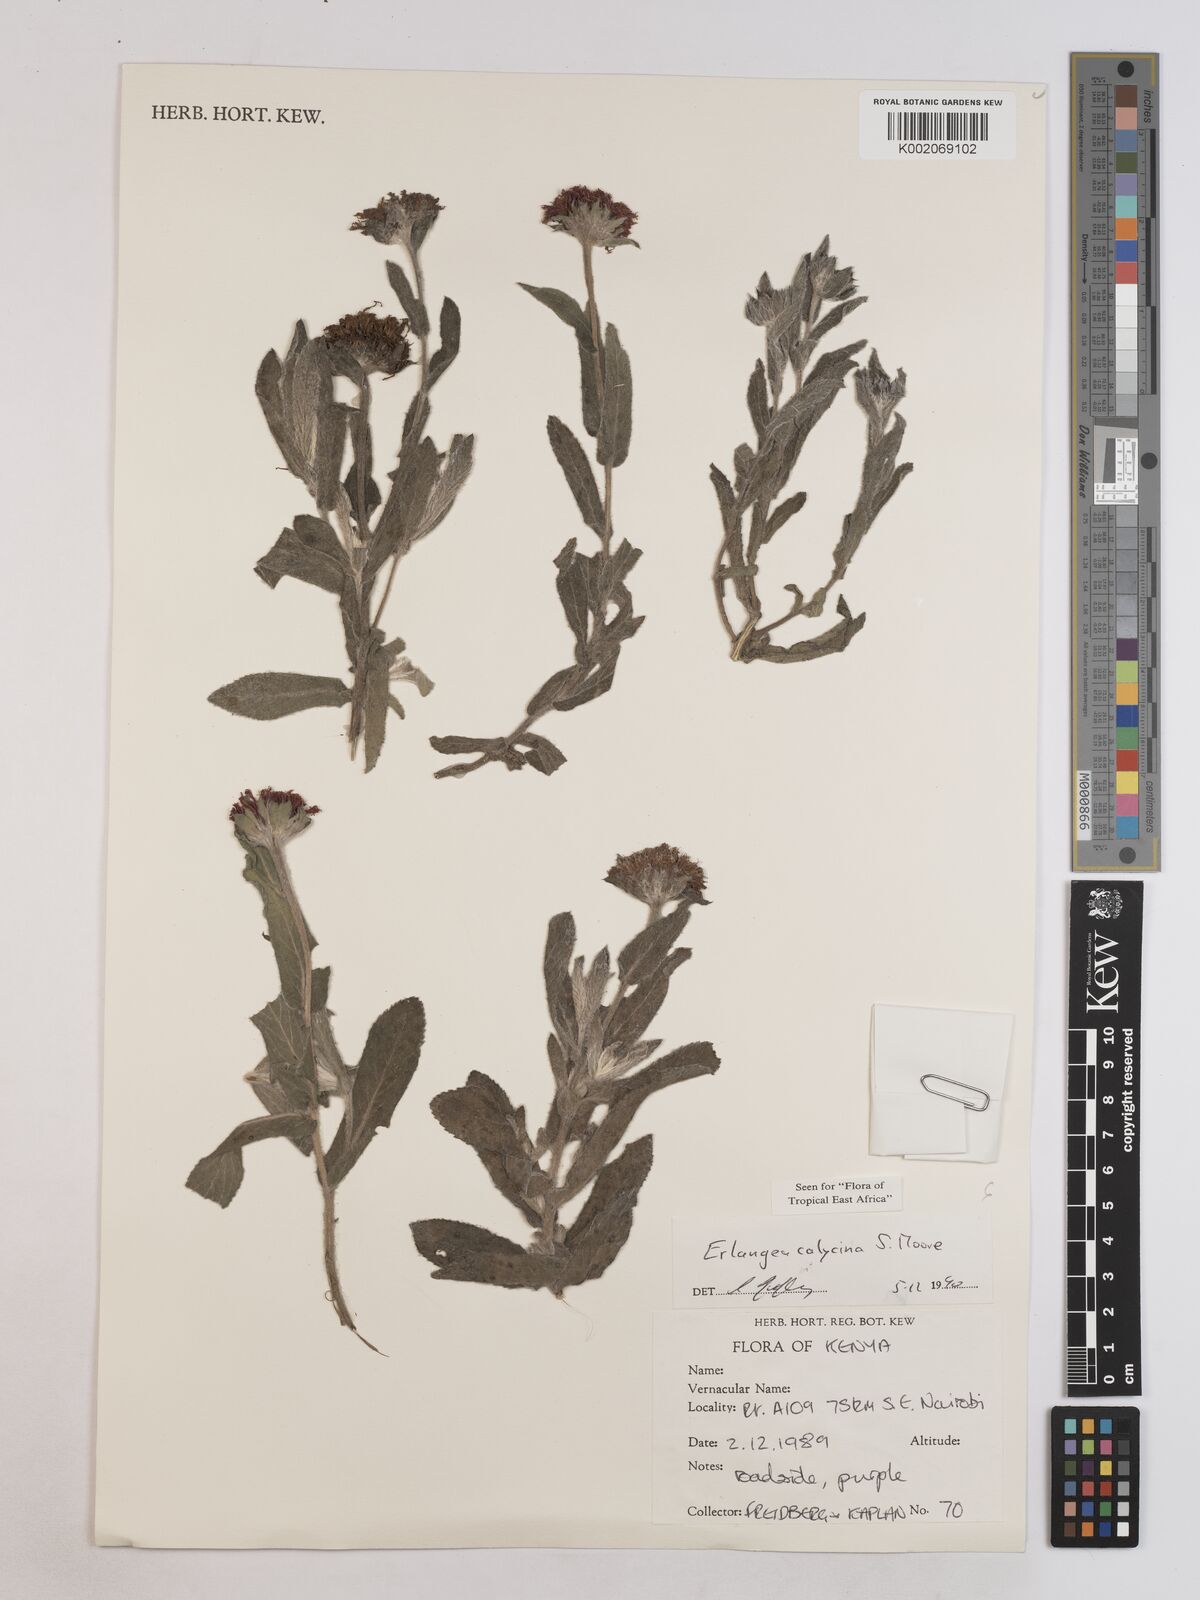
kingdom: Plantae
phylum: Tracheophyta
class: Magnoliopsida
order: Asterales
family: Asteraceae
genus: Erlangea
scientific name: Erlangea calycina
